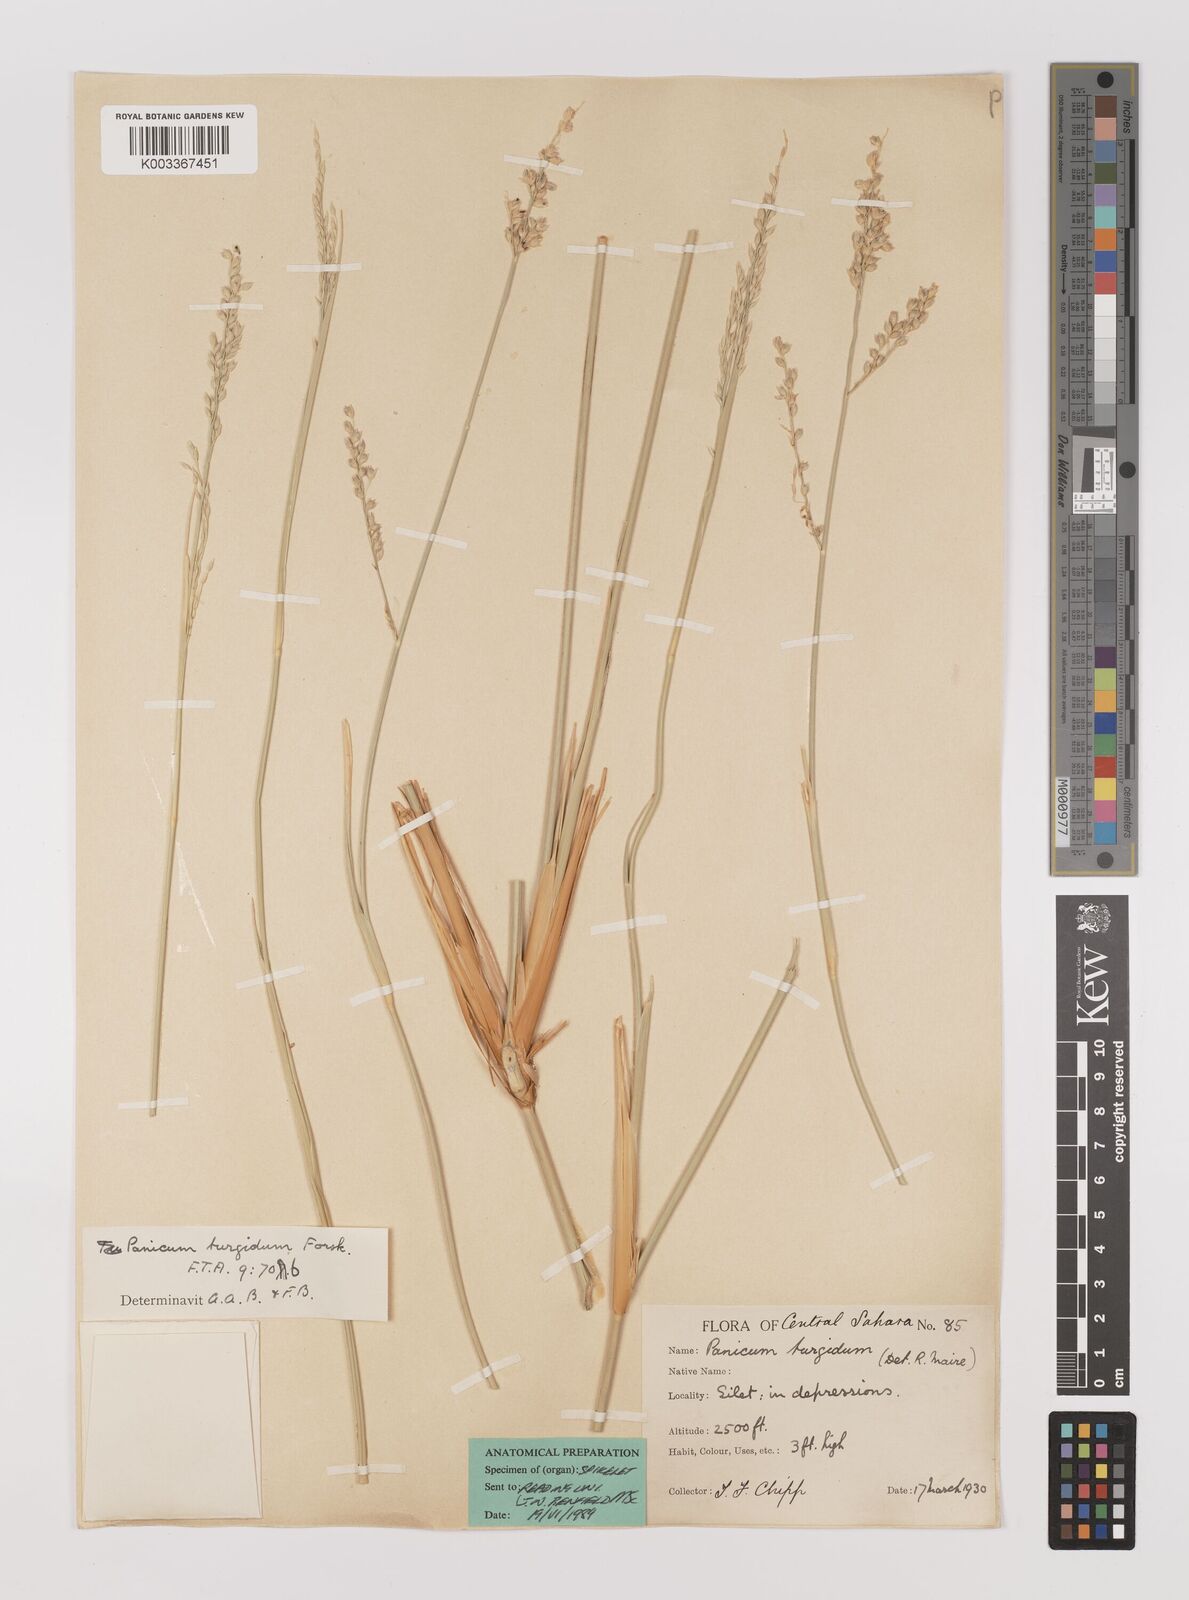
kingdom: Plantae
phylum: Tracheophyta
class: Liliopsida
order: Poales
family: Poaceae
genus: Panicum
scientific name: Panicum turgidum
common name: Desert grass
